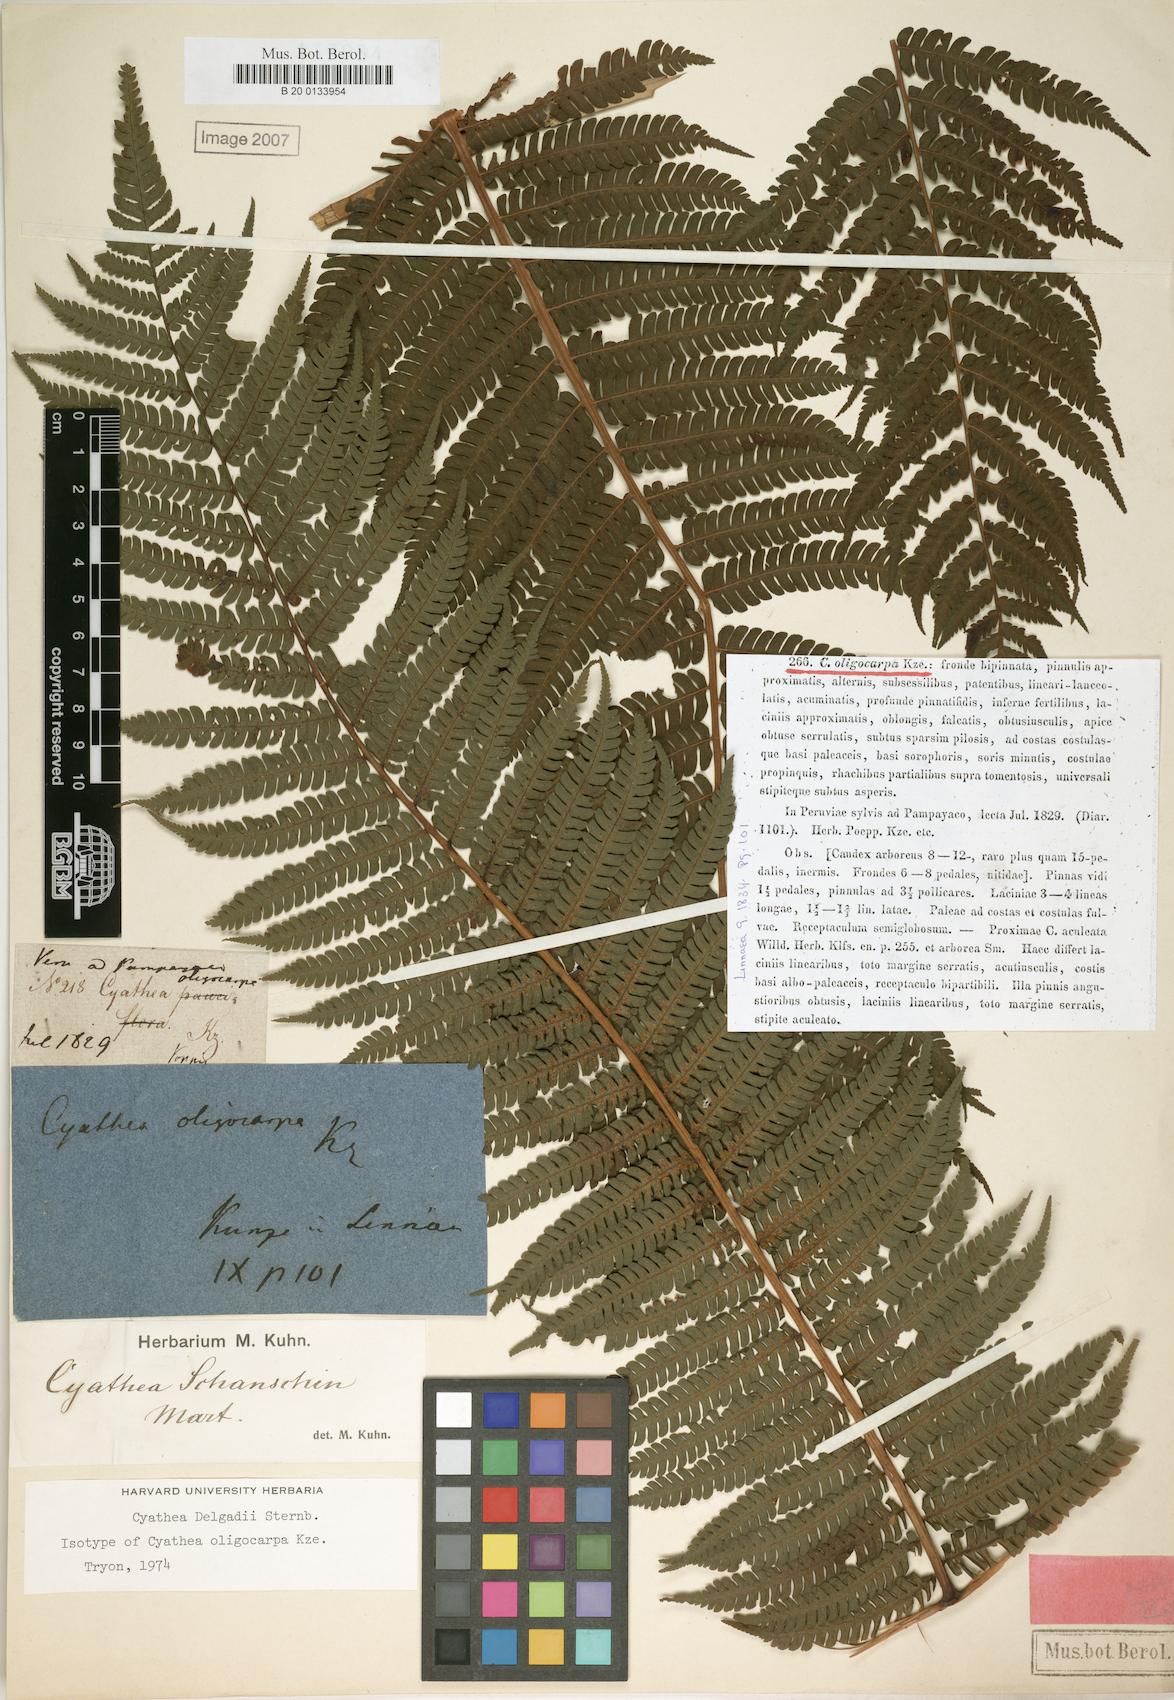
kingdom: Plantae
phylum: Tracheophyta
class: Polypodiopsida
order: Cyatheales
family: Cyatheaceae
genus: Cyathea
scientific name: Cyathea delgadii
